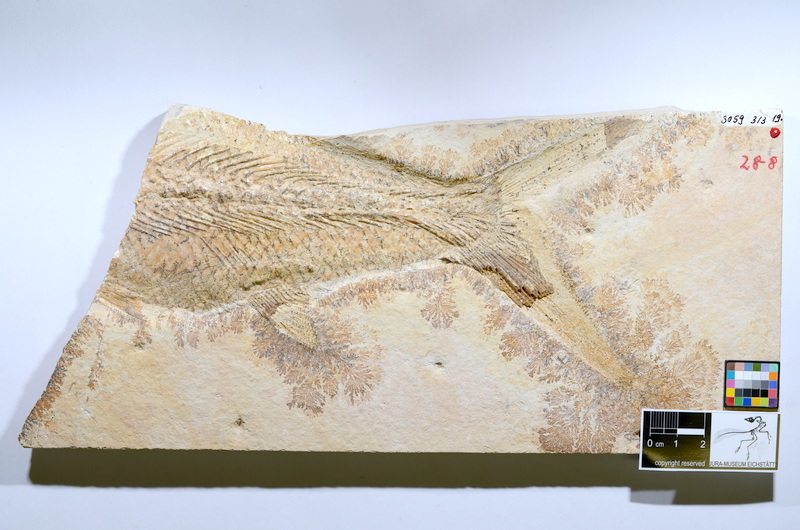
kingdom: Animalia
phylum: Chordata
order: Amiiformes
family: Caturidae
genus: Caturus
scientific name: Caturus furcatus
